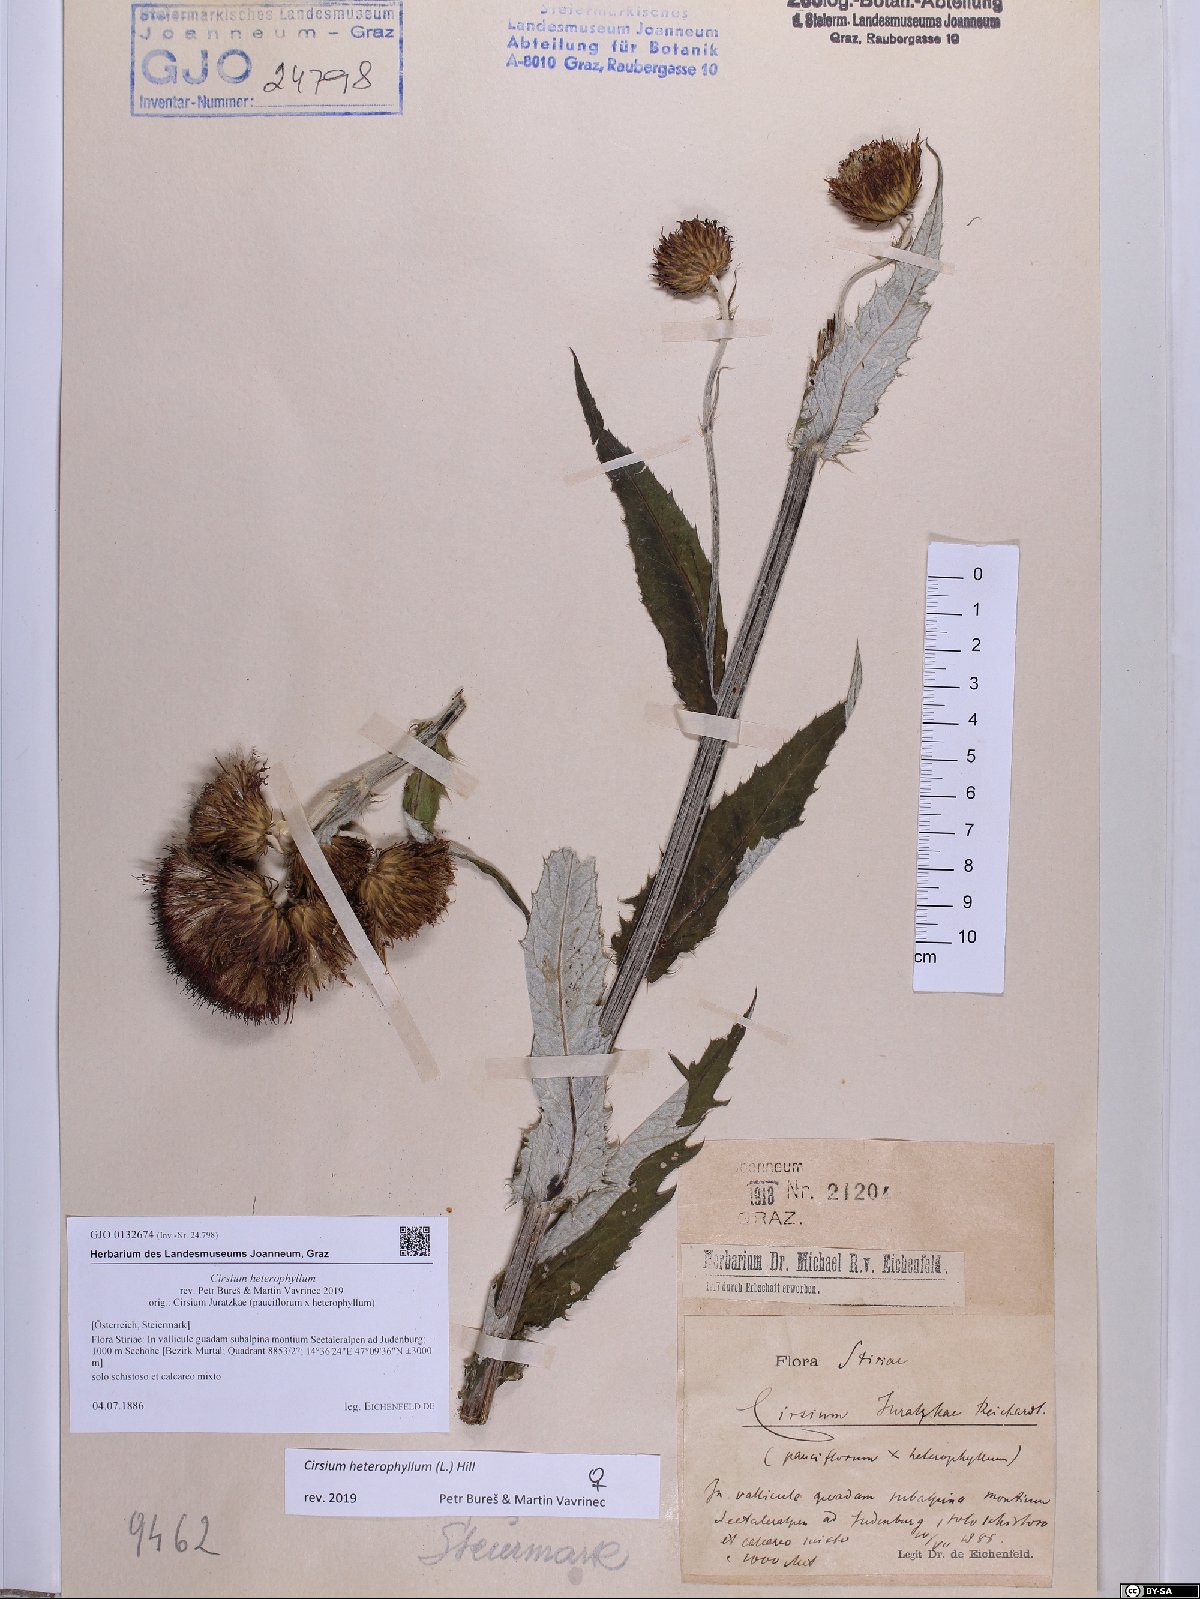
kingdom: Plantae
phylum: Tracheophyta
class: Magnoliopsida
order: Asterales
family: Asteraceae
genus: Cirsium
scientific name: Cirsium heterophyllum
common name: Melancholy thistle
